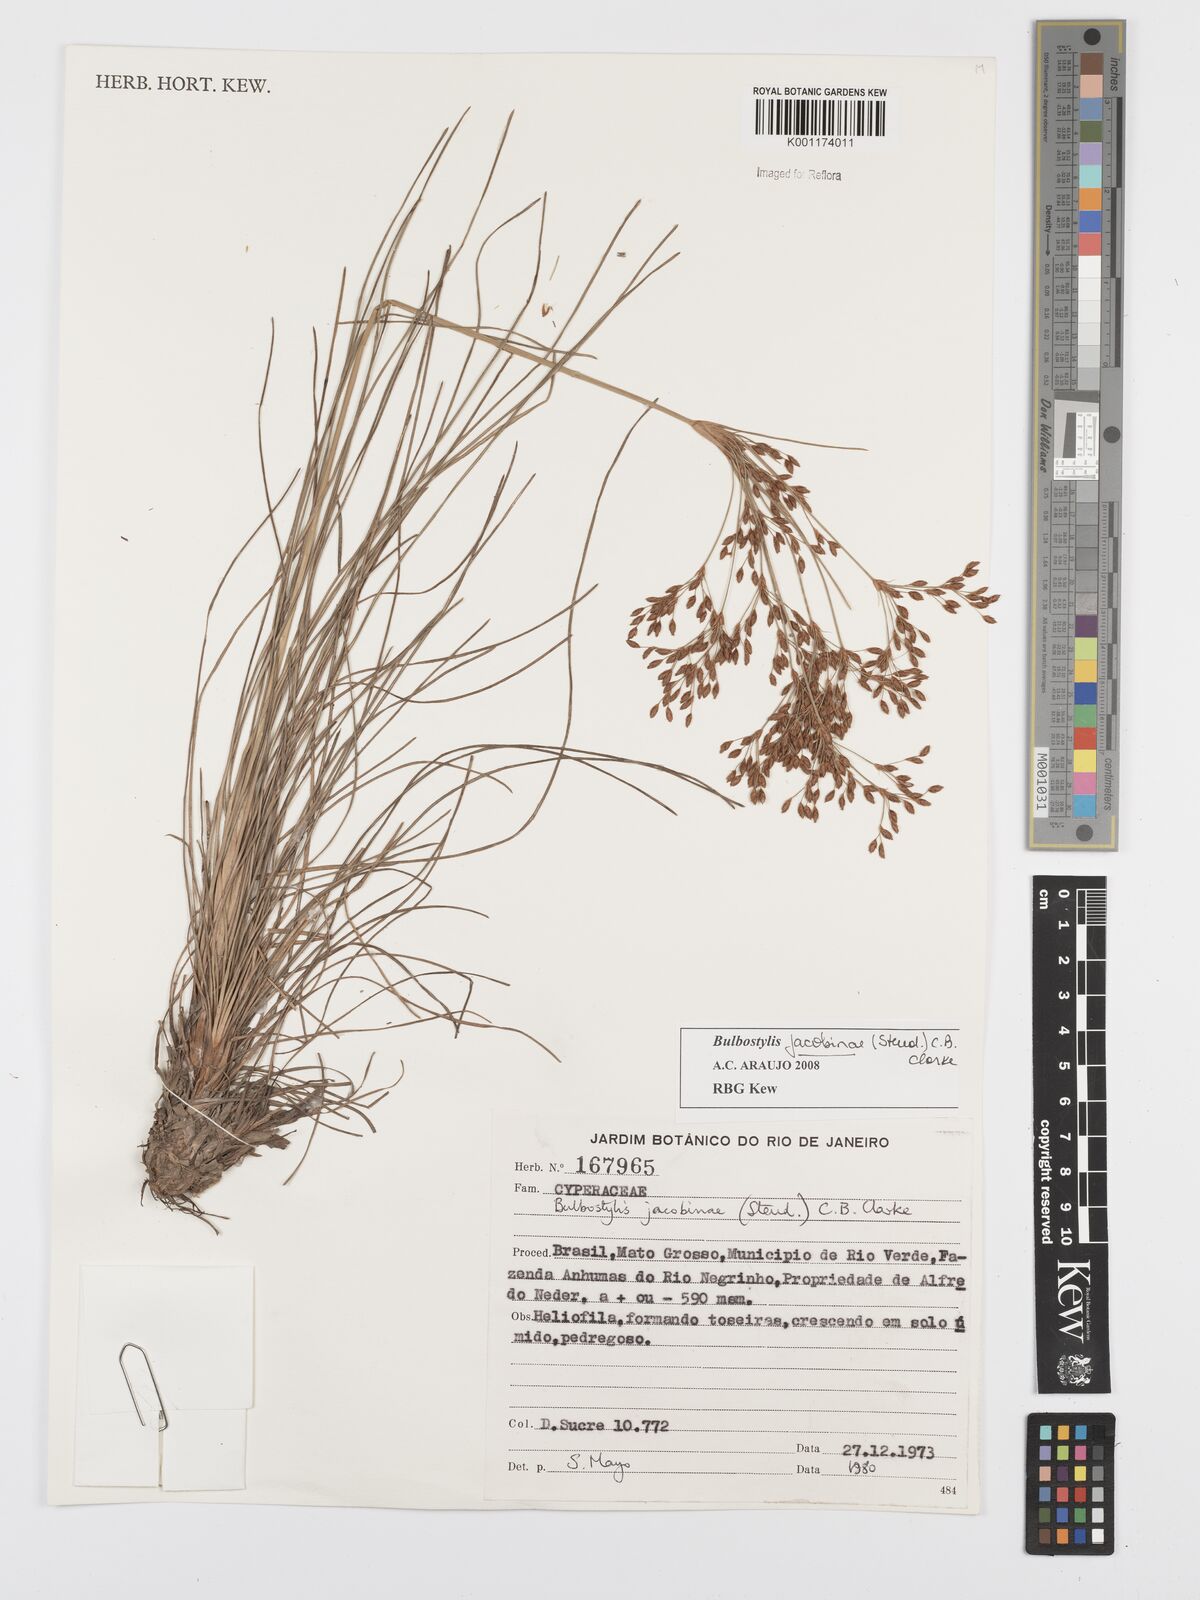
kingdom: Plantae
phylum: Tracheophyta
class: Liliopsida
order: Poales
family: Cyperaceae
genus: Bulbostylis
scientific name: Bulbostylis jacobinae
